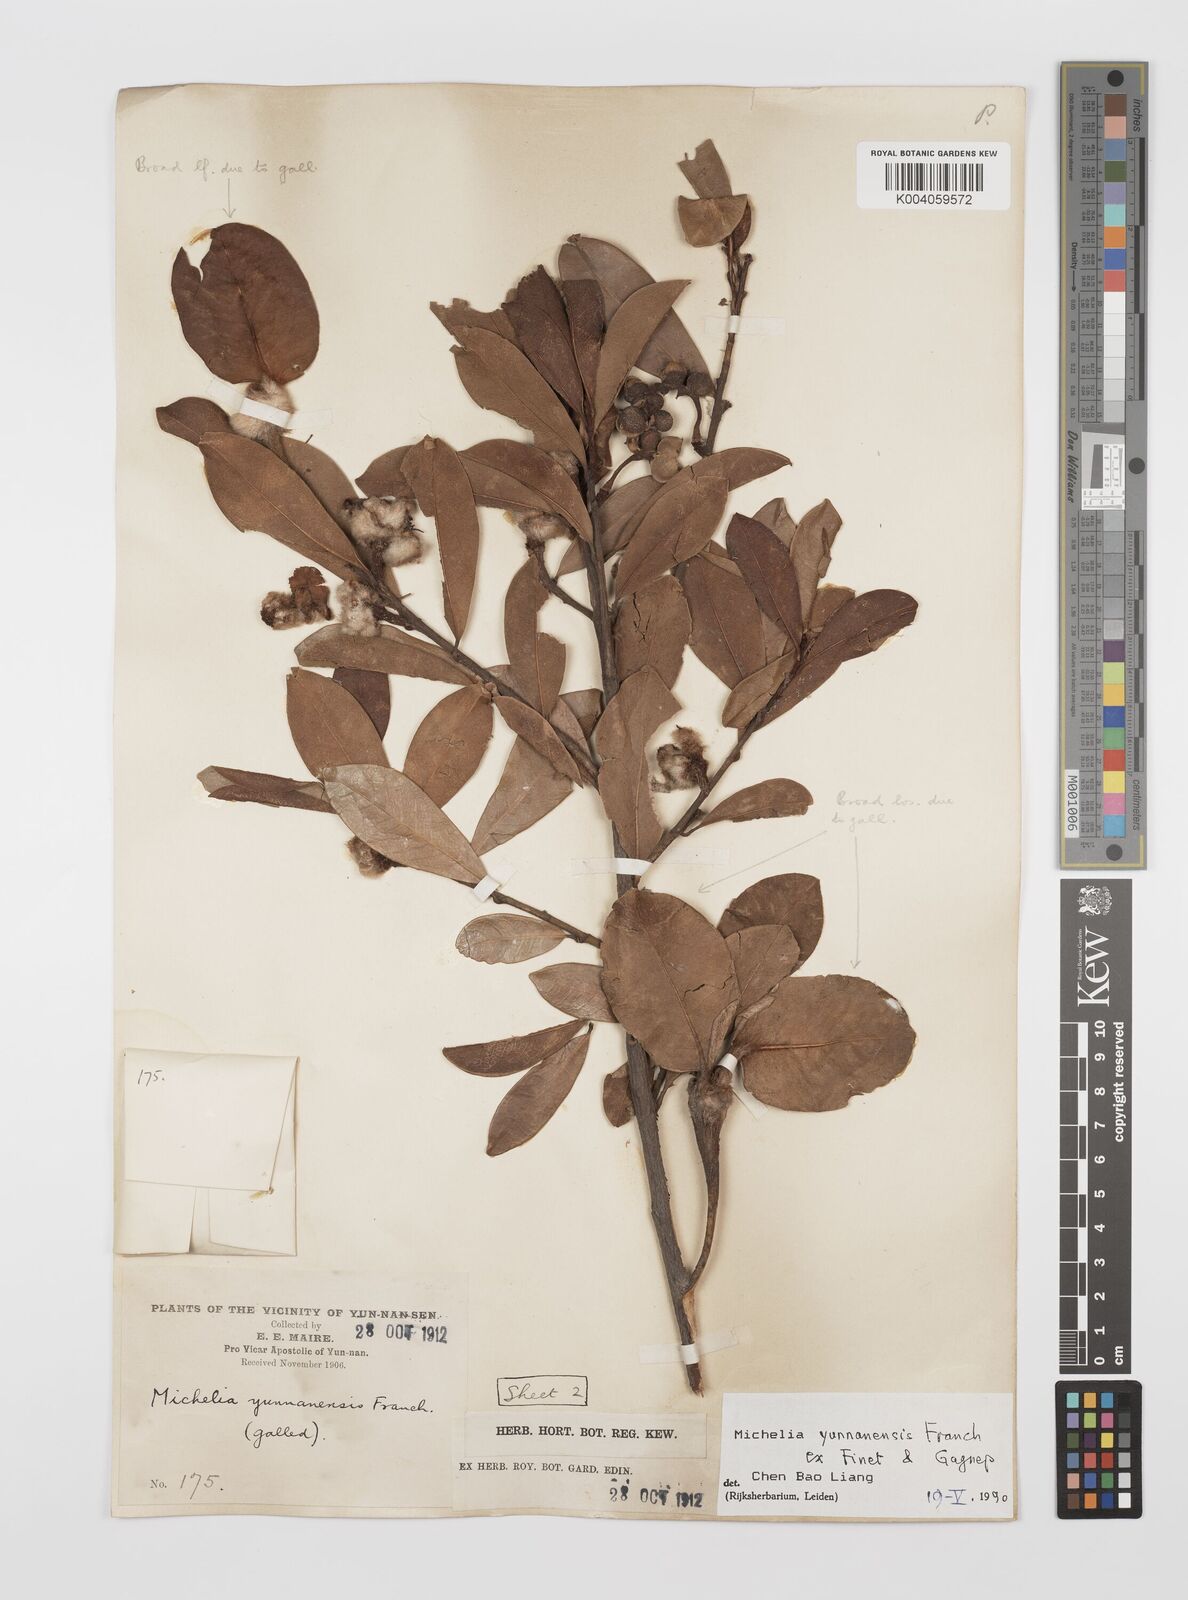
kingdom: Plantae
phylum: Tracheophyta
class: Magnoliopsida
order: Magnoliales
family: Magnoliaceae
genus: Magnolia
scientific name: Magnolia laevifolia
